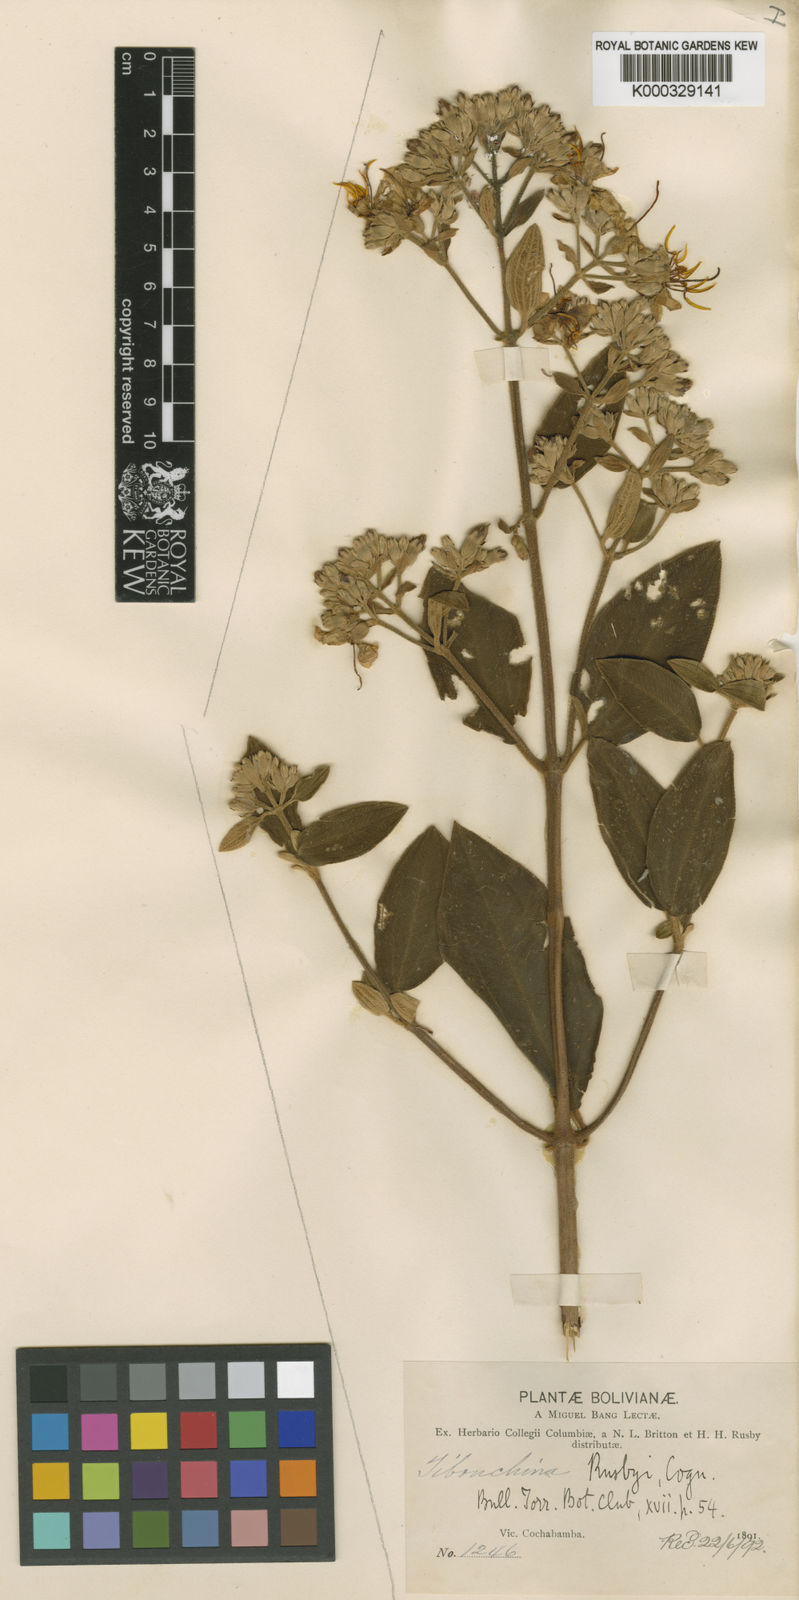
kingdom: Plantae
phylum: Tracheophyta
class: Magnoliopsida
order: Myrtales
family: Melastomataceae
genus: Chaetogastra
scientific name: Chaetogastra rusbyi
